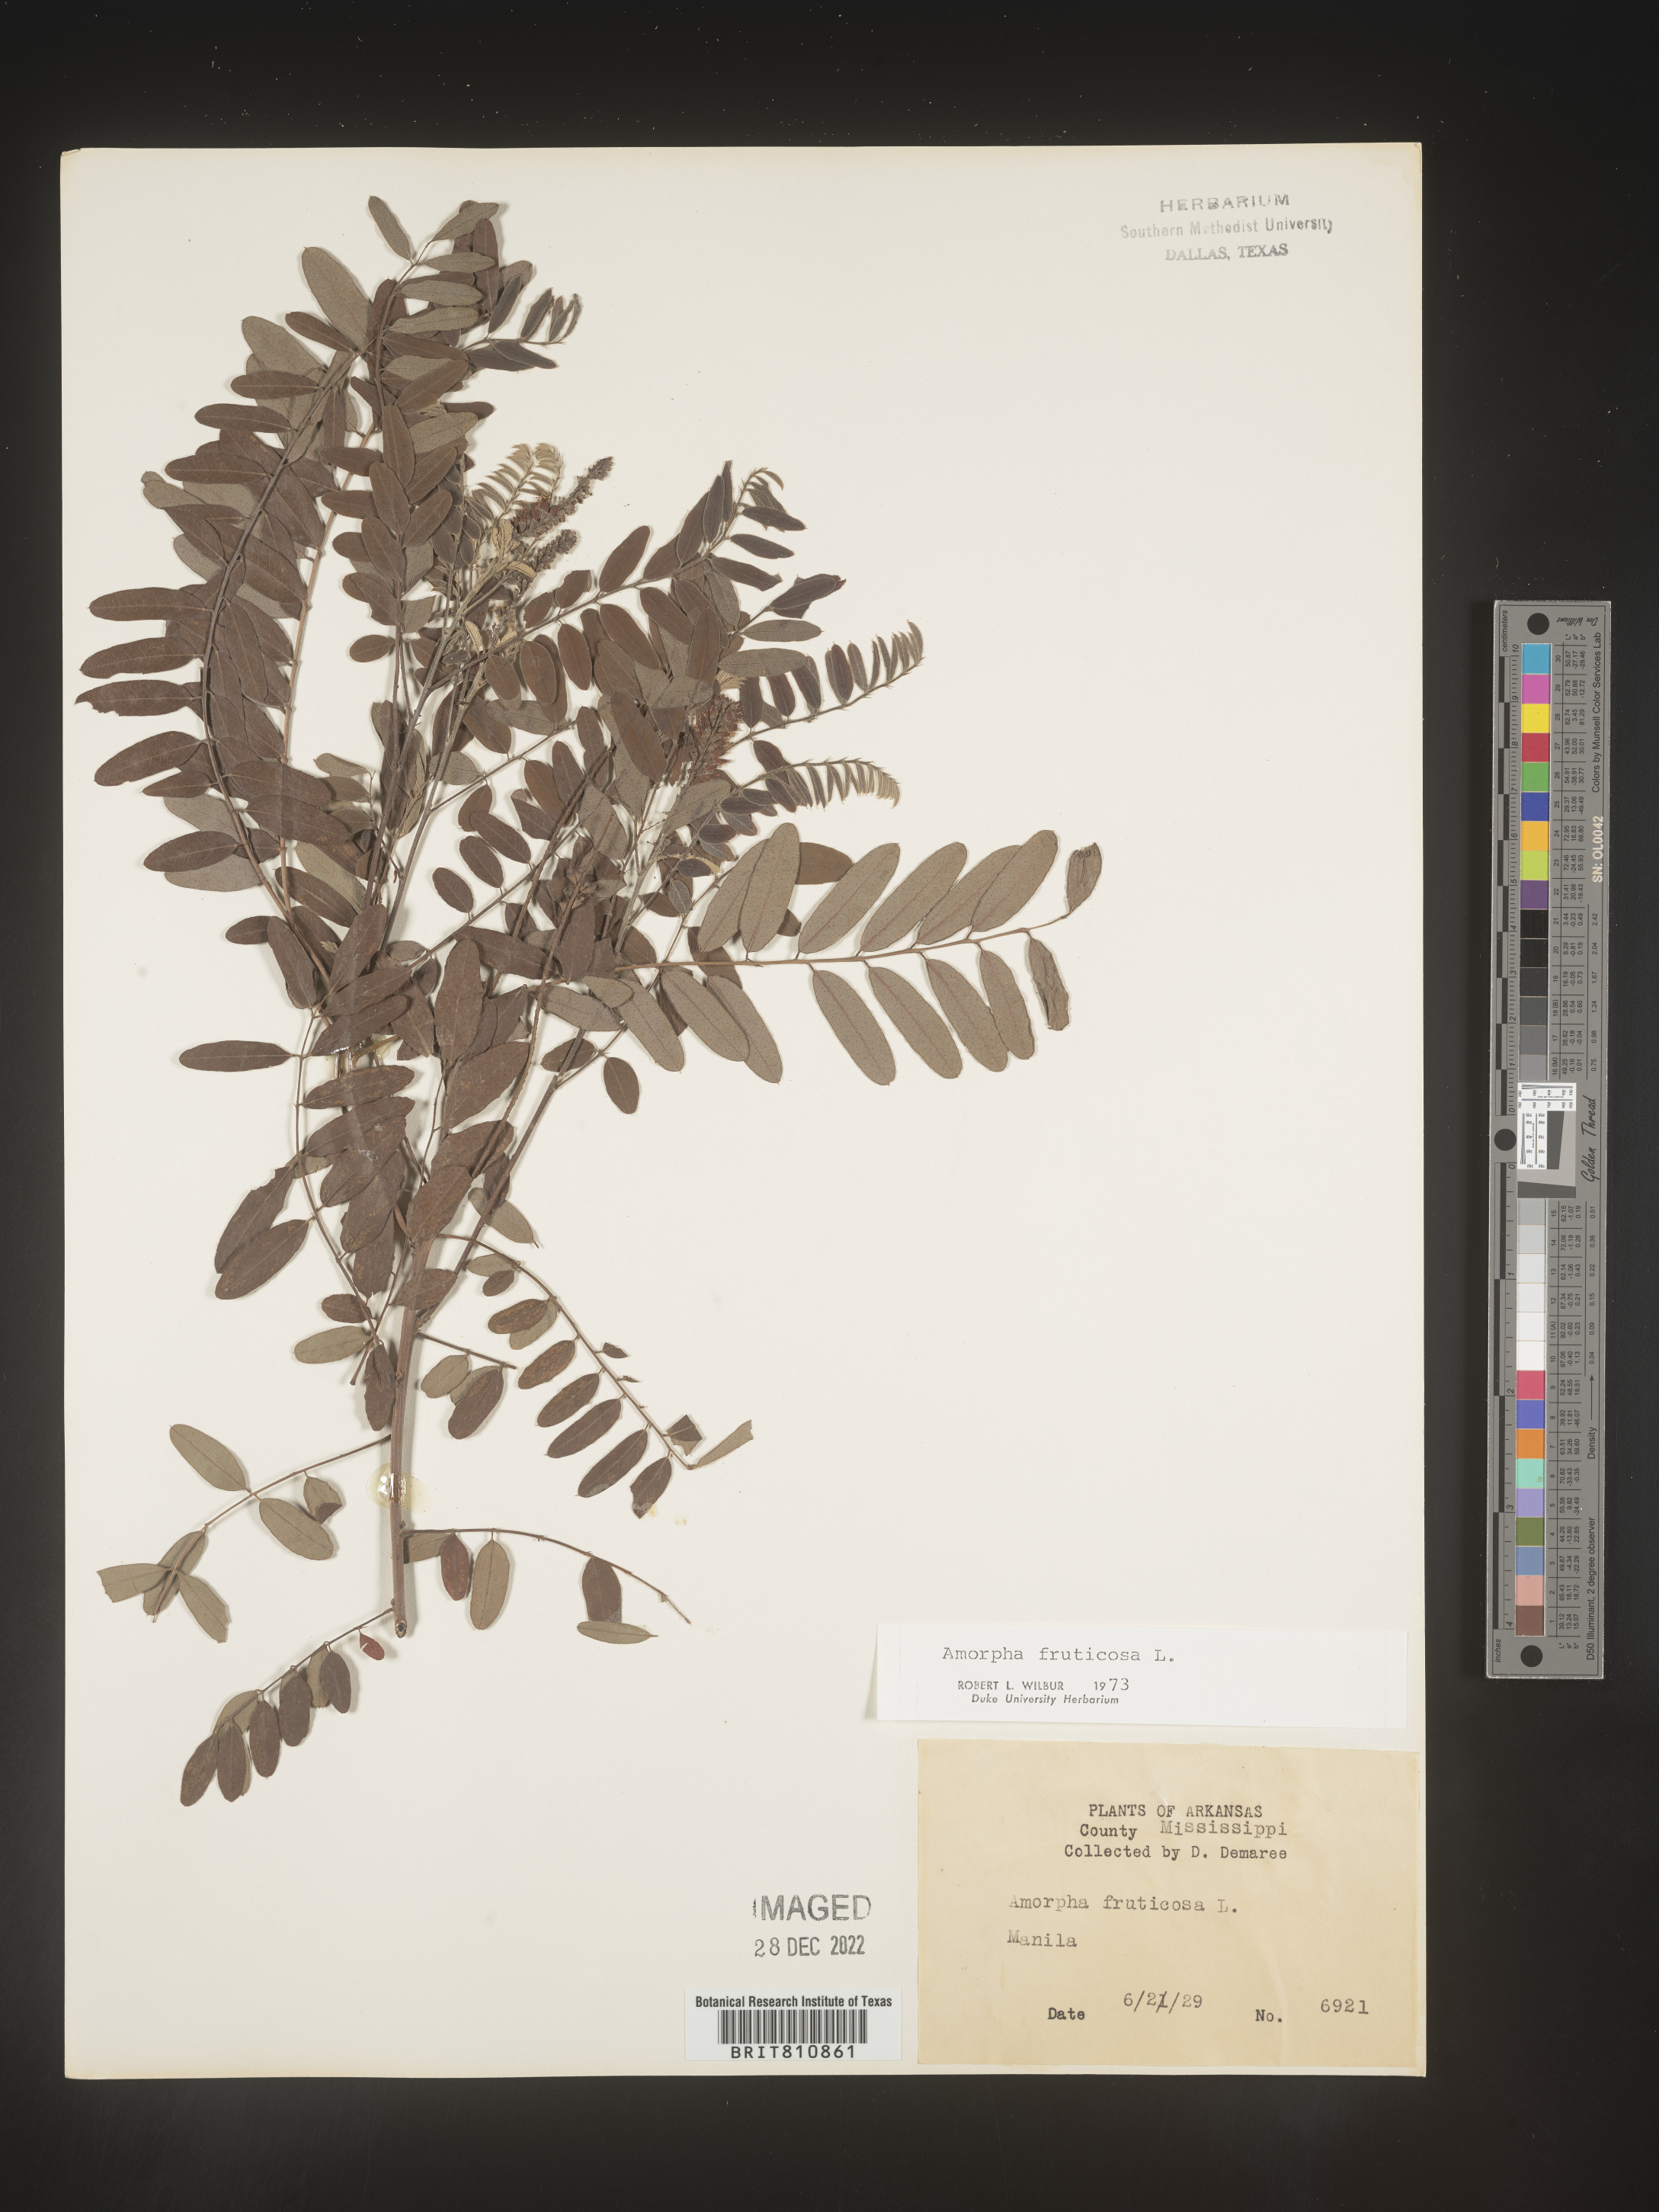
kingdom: Plantae
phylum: Tracheophyta
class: Magnoliopsida
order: Fabales
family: Fabaceae
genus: Amorpha
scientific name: Amorpha fruticosa
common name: False indigo
